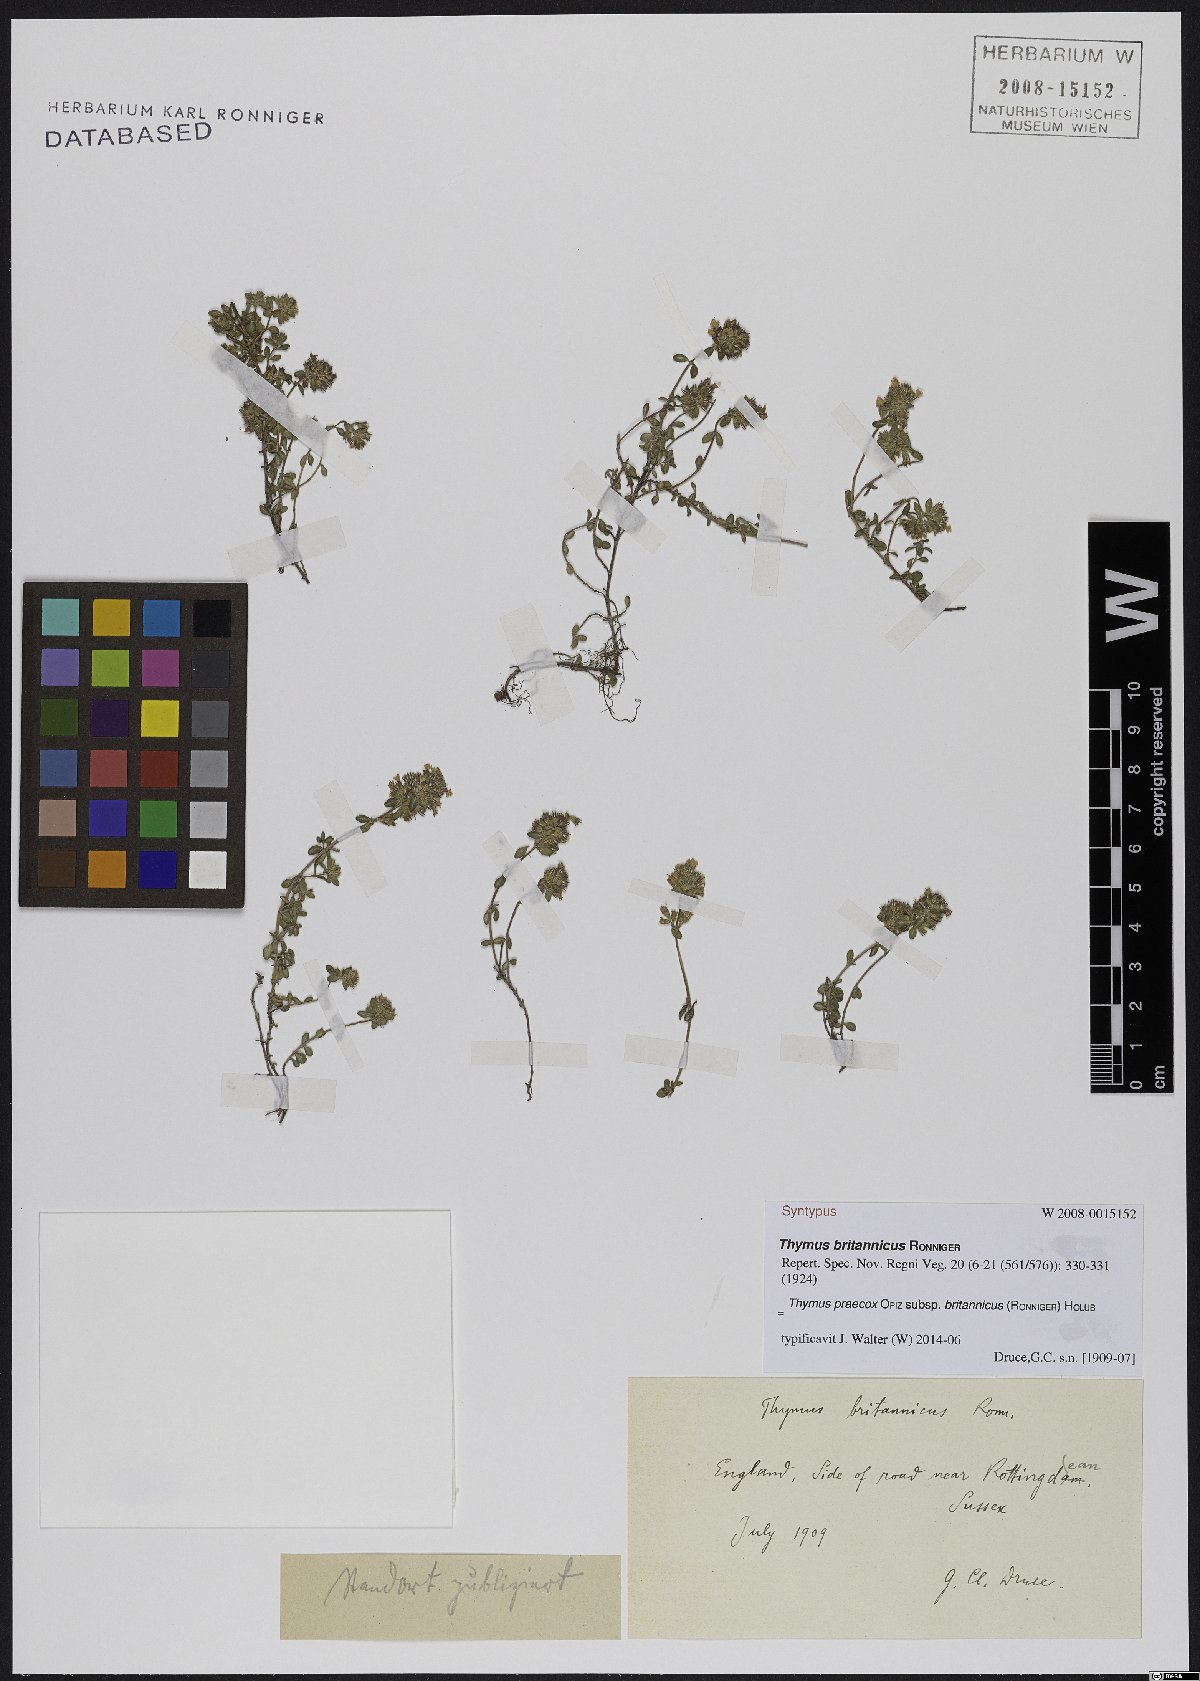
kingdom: Plantae
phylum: Tracheophyta
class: Magnoliopsida
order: Lamiales
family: Lamiaceae
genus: Thymus
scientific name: Thymus praecox
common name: Wild thyme
